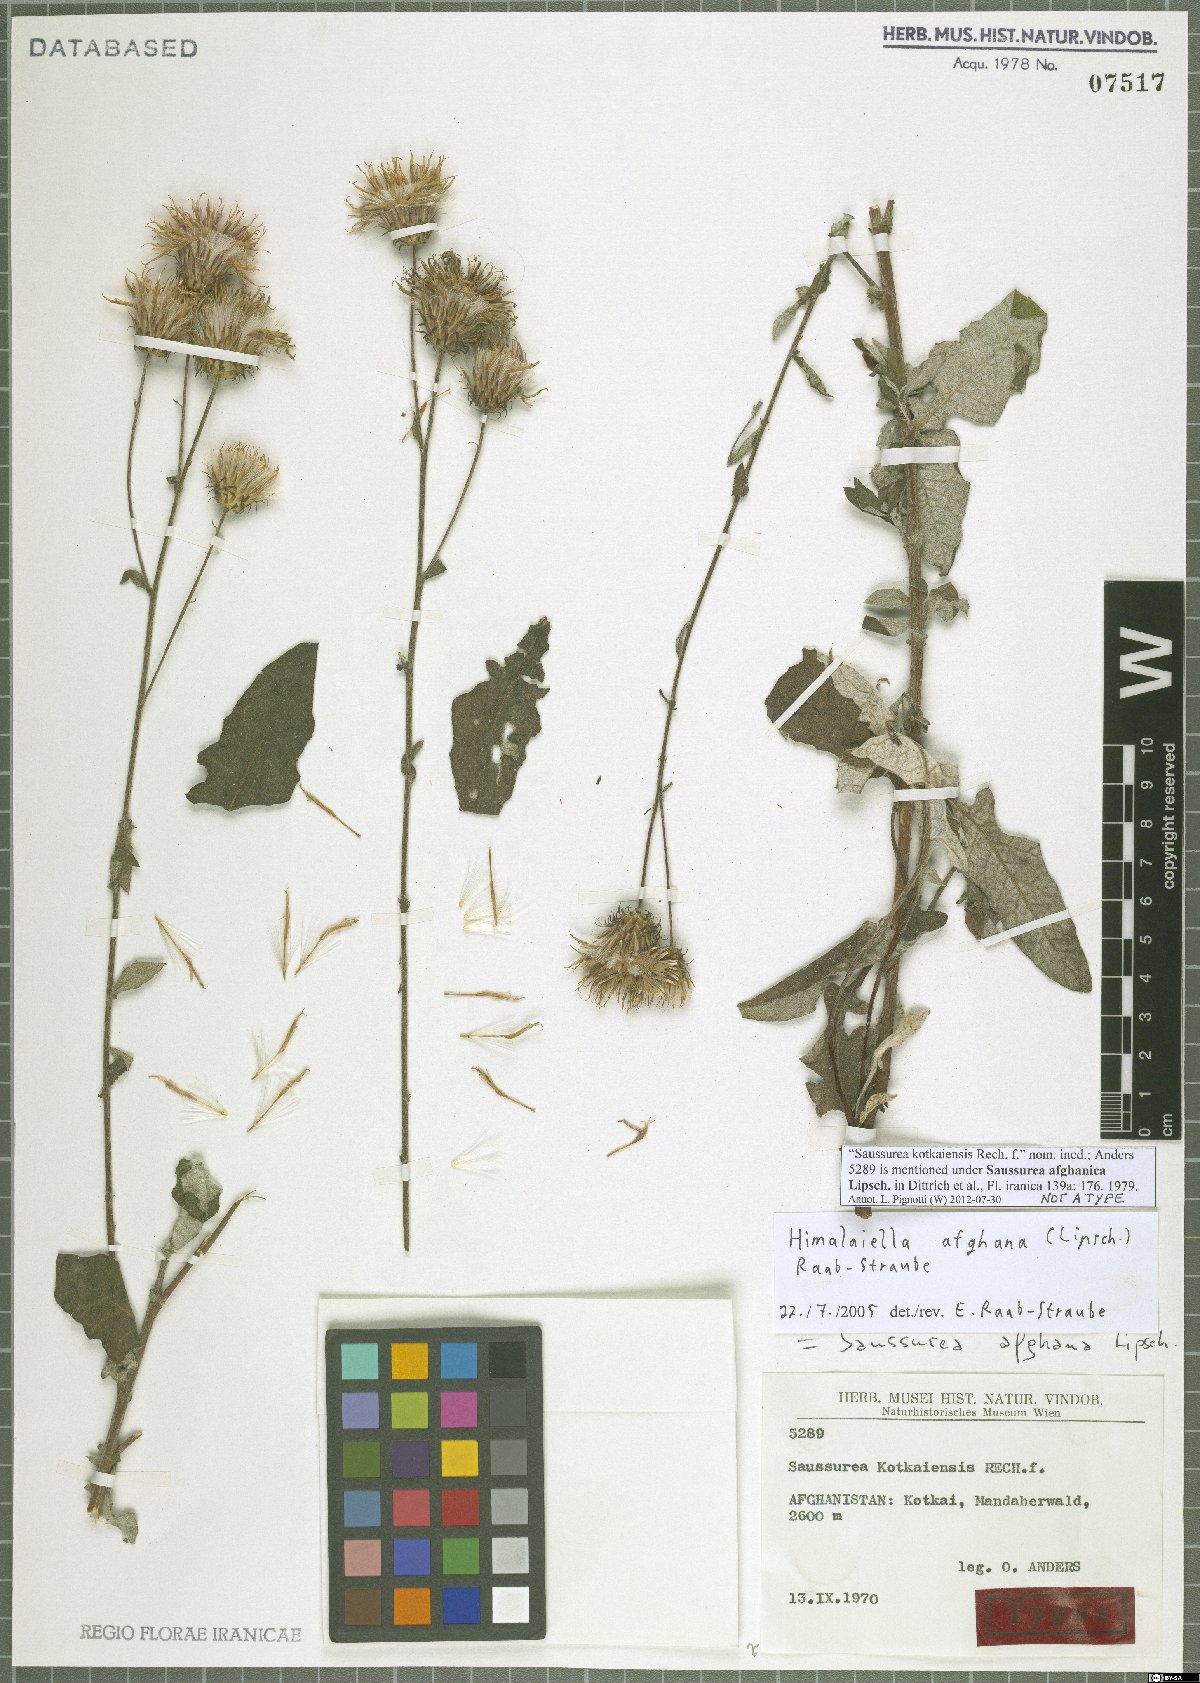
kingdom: Plantae
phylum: Tracheophyta
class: Magnoliopsida
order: Asterales
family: Asteraceae
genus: Saussurea
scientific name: Saussurea afghana
